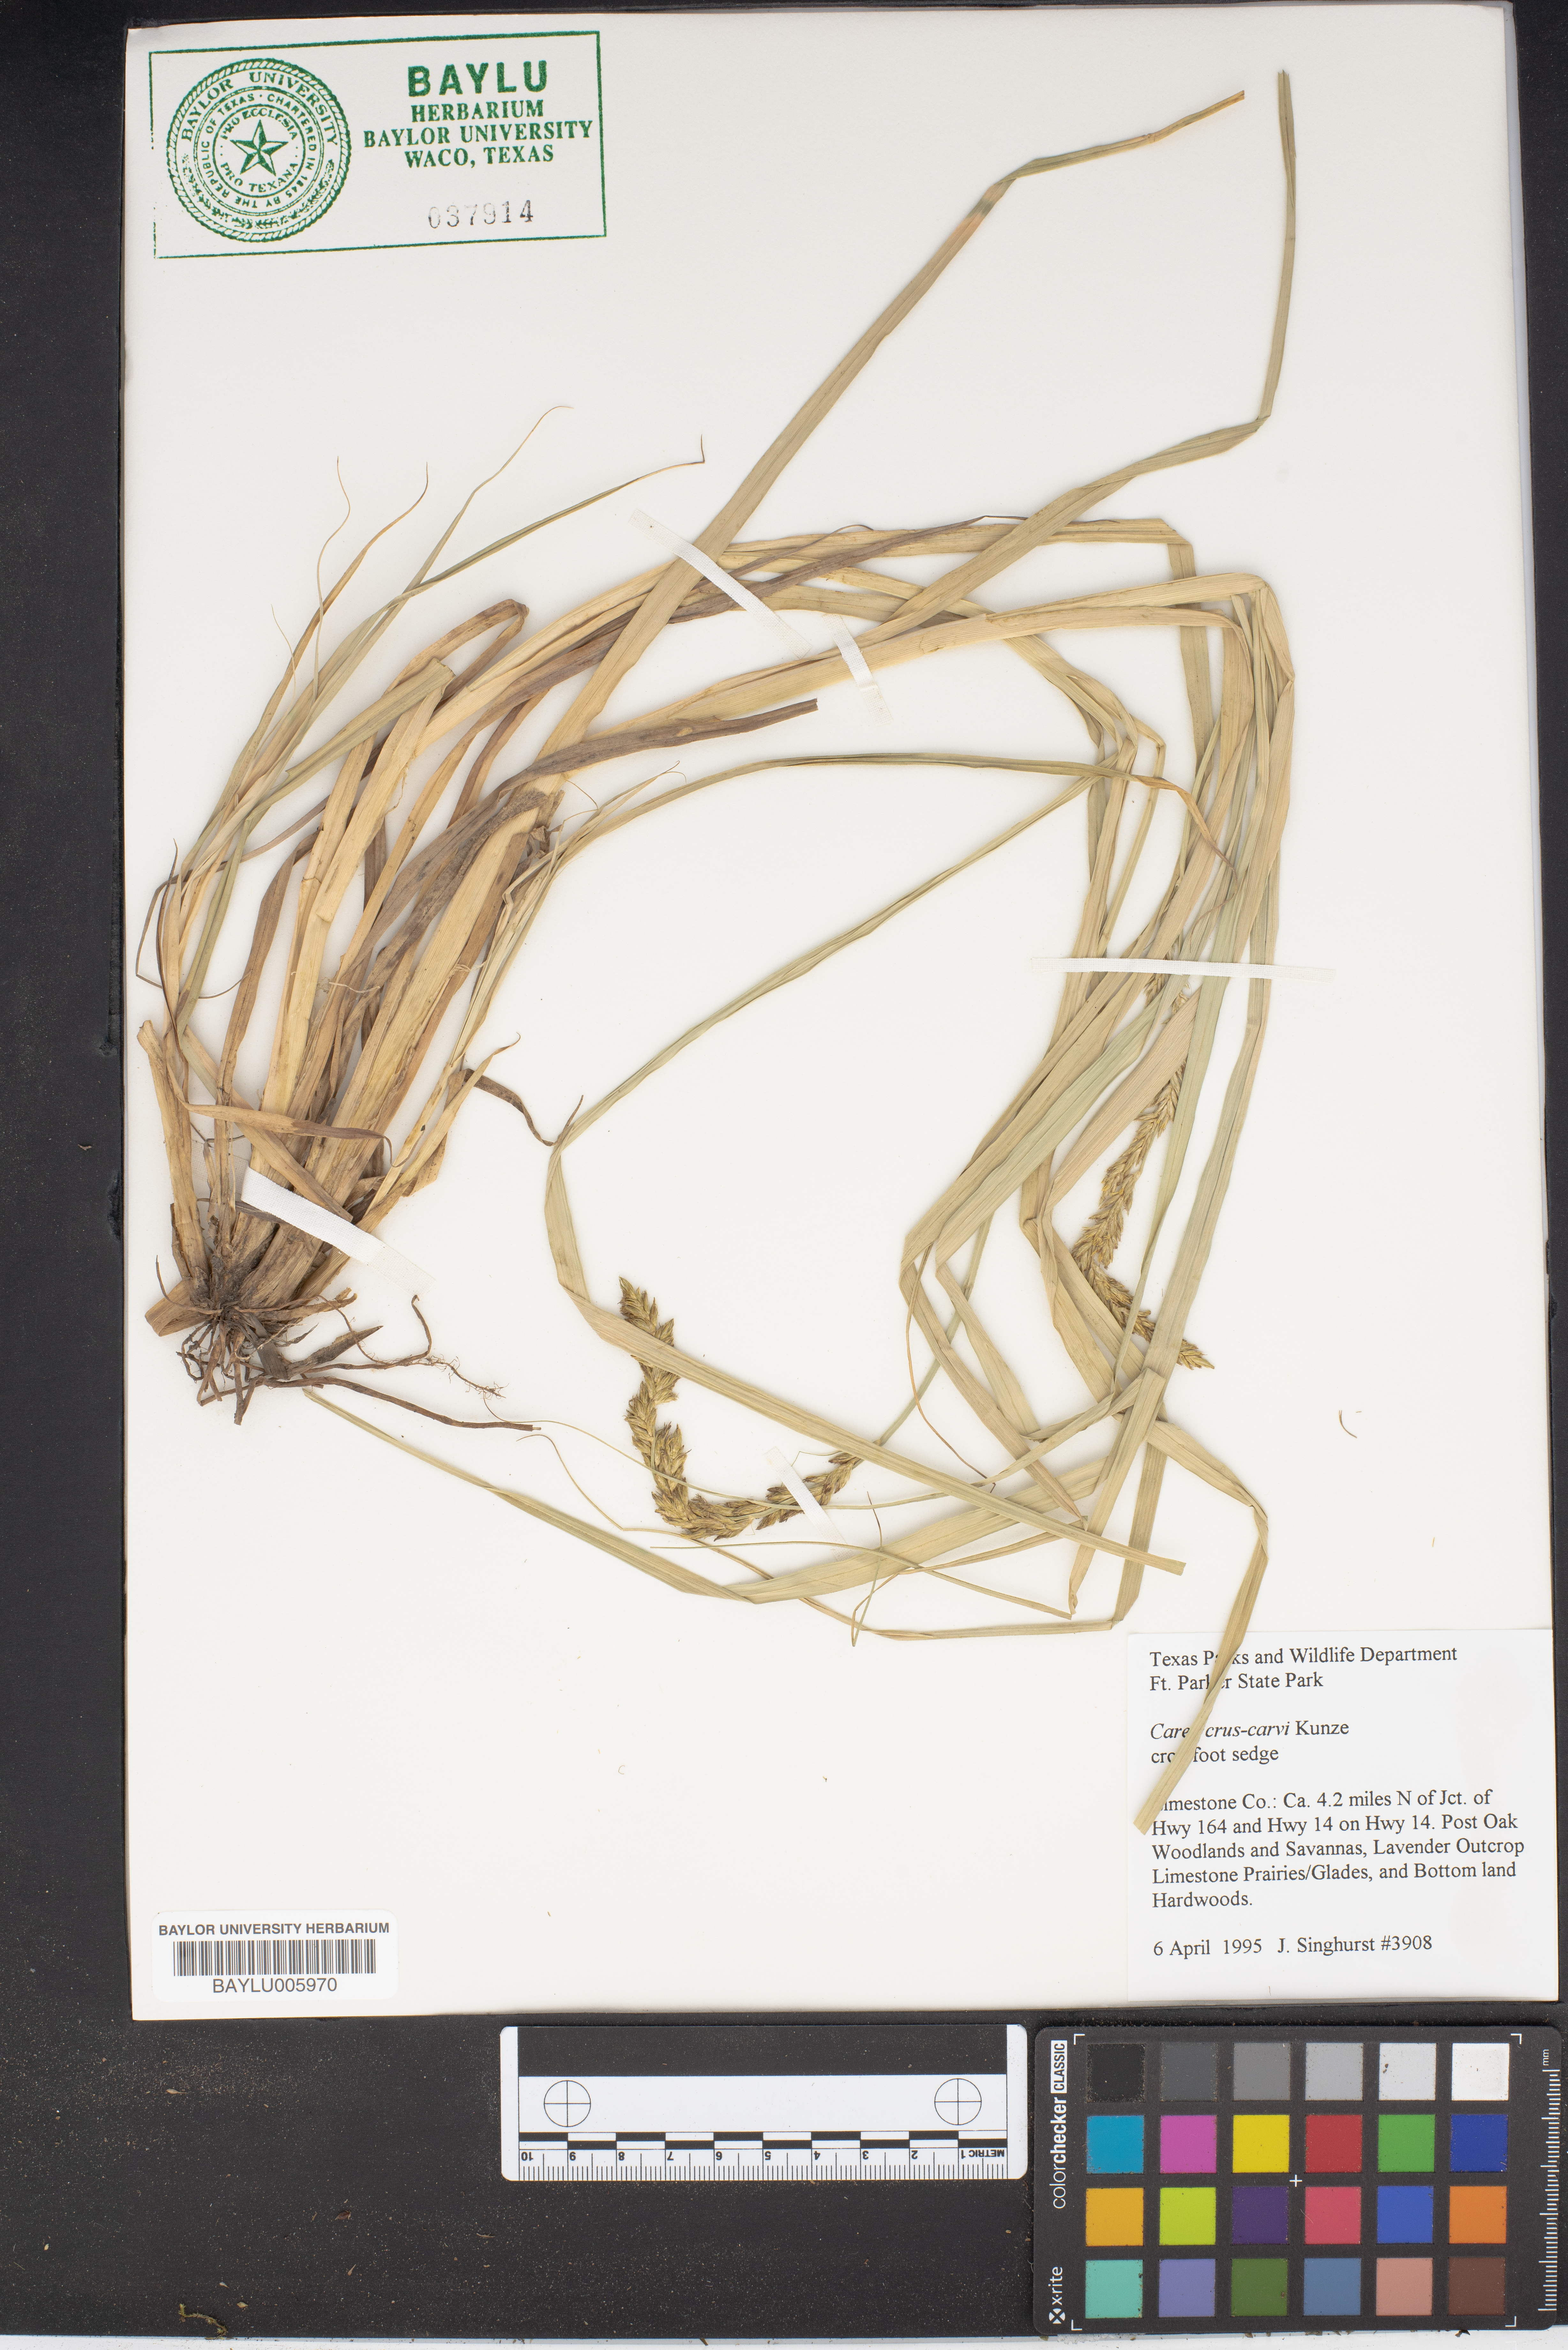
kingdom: Plantae
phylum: Tracheophyta
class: Liliopsida
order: Poales
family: Cyperaceae
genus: Carex
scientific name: Carex crus-corvi
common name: Crow-spur sedge
